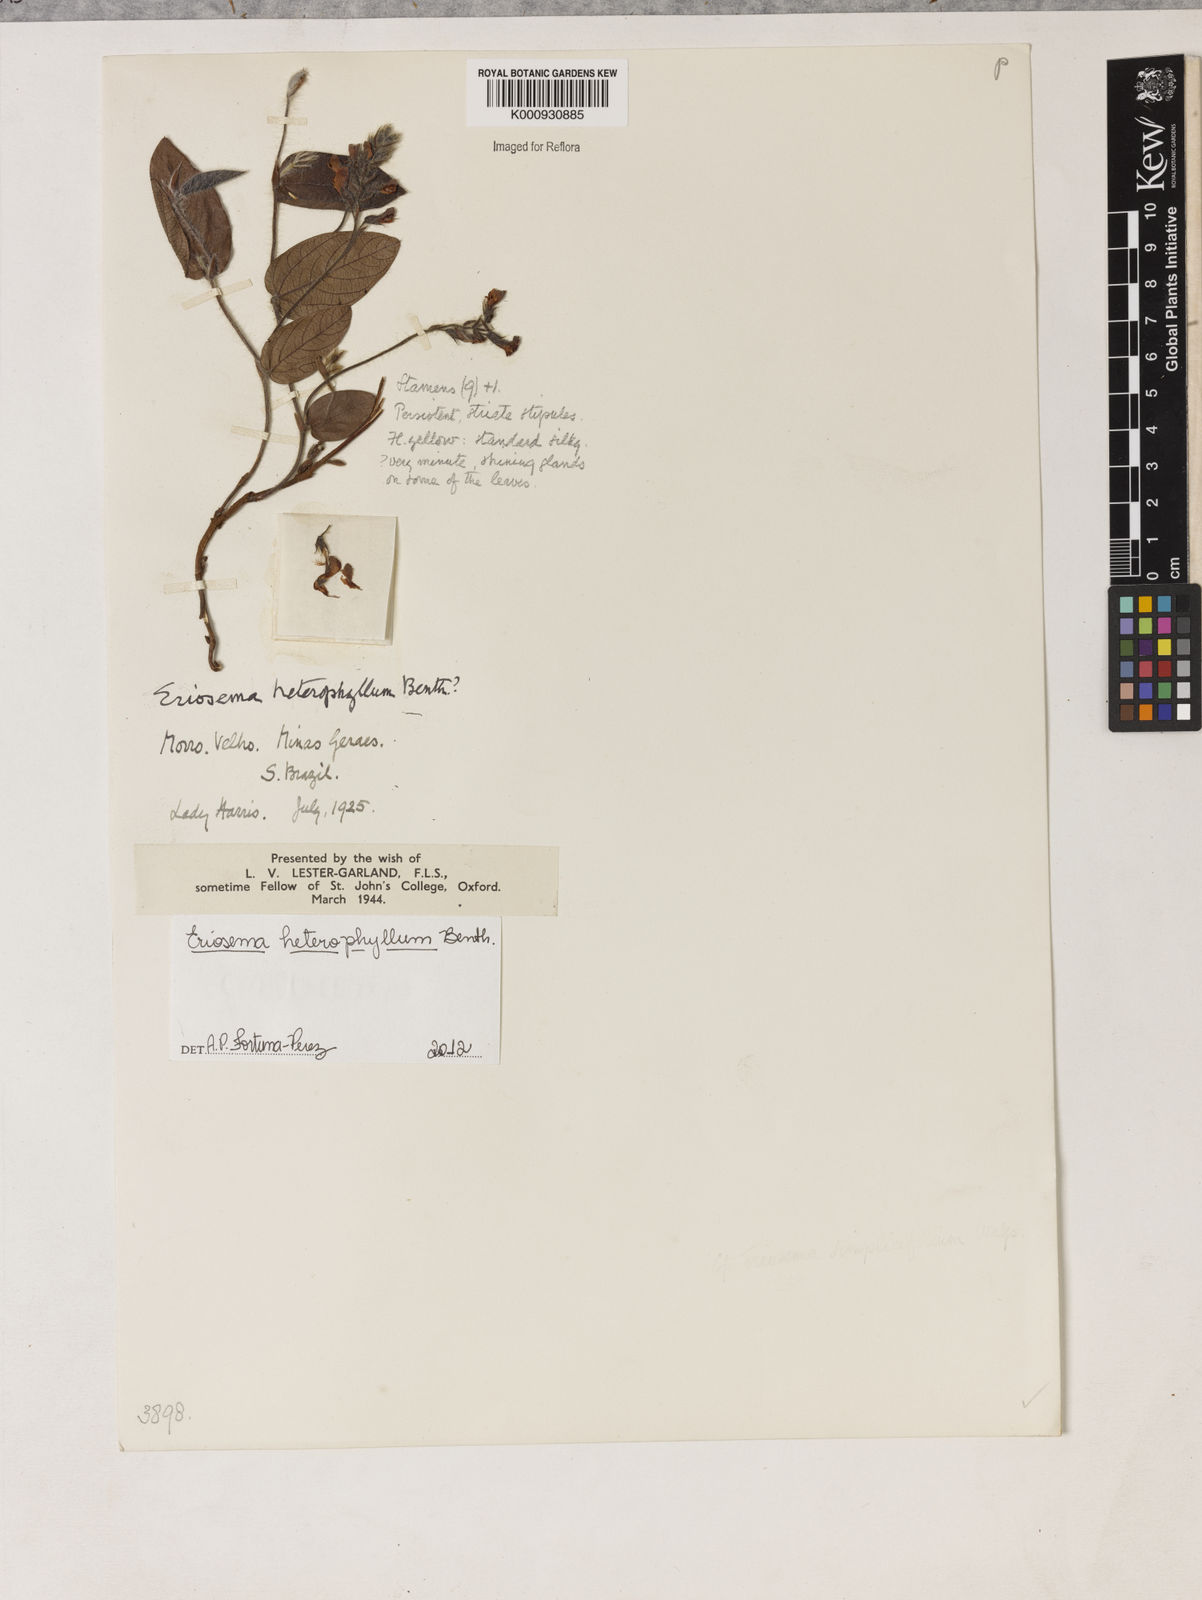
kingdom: Plantae
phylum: Tracheophyta
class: Magnoliopsida
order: Fabales
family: Fabaceae
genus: Eriosema
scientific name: Eriosema heterophyllum
